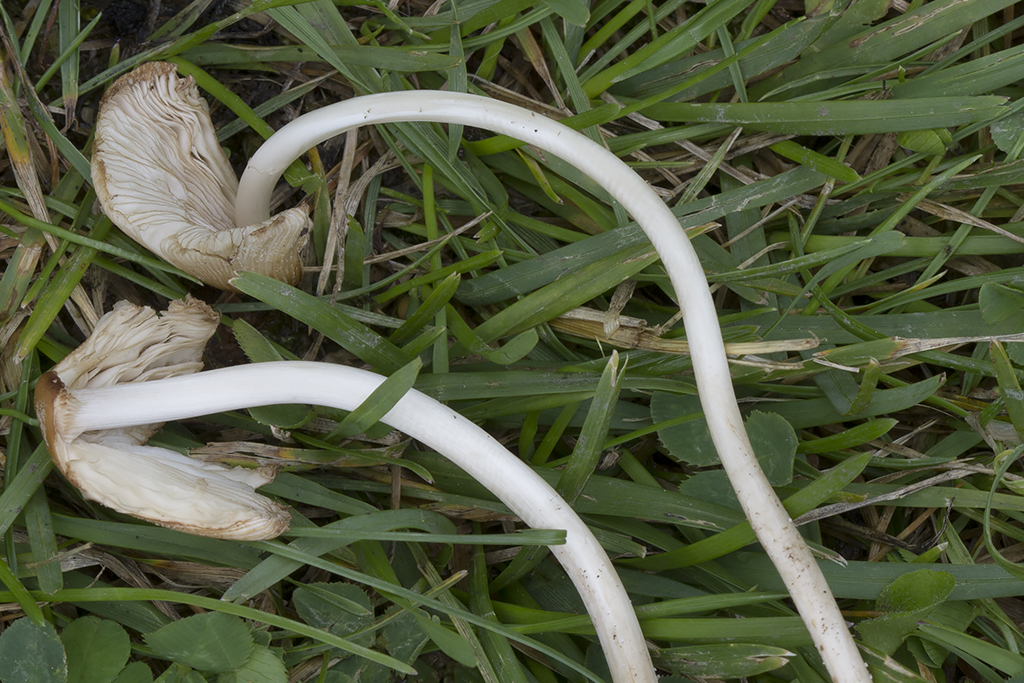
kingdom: Fungi
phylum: Basidiomycota
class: Agaricomycetes
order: Agaricales
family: Psathyrellaceae
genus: Coprinellus
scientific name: Coprinellus saccharinus
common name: sukker-blækhat
